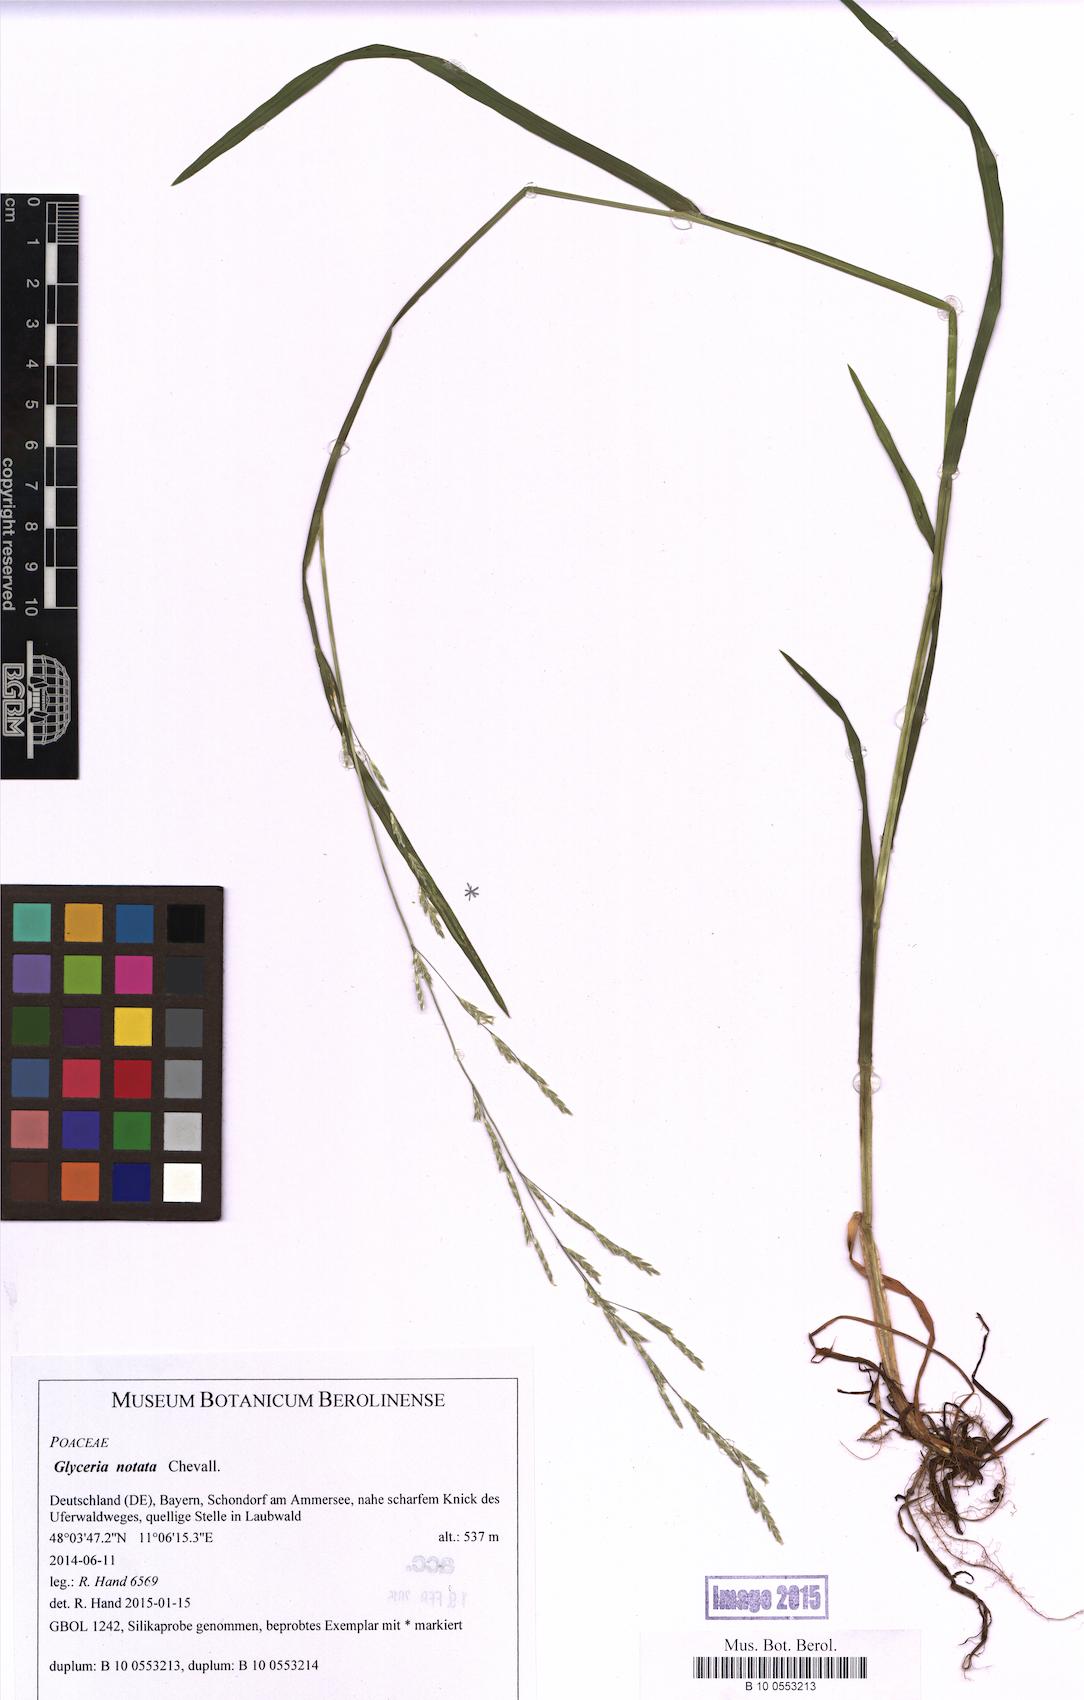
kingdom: Plantae
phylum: Tracheophyta
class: Liliopsida
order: Poales
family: Poaceae
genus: Glyceria
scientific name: Glyceria notata
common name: Plicate sweet-grass
